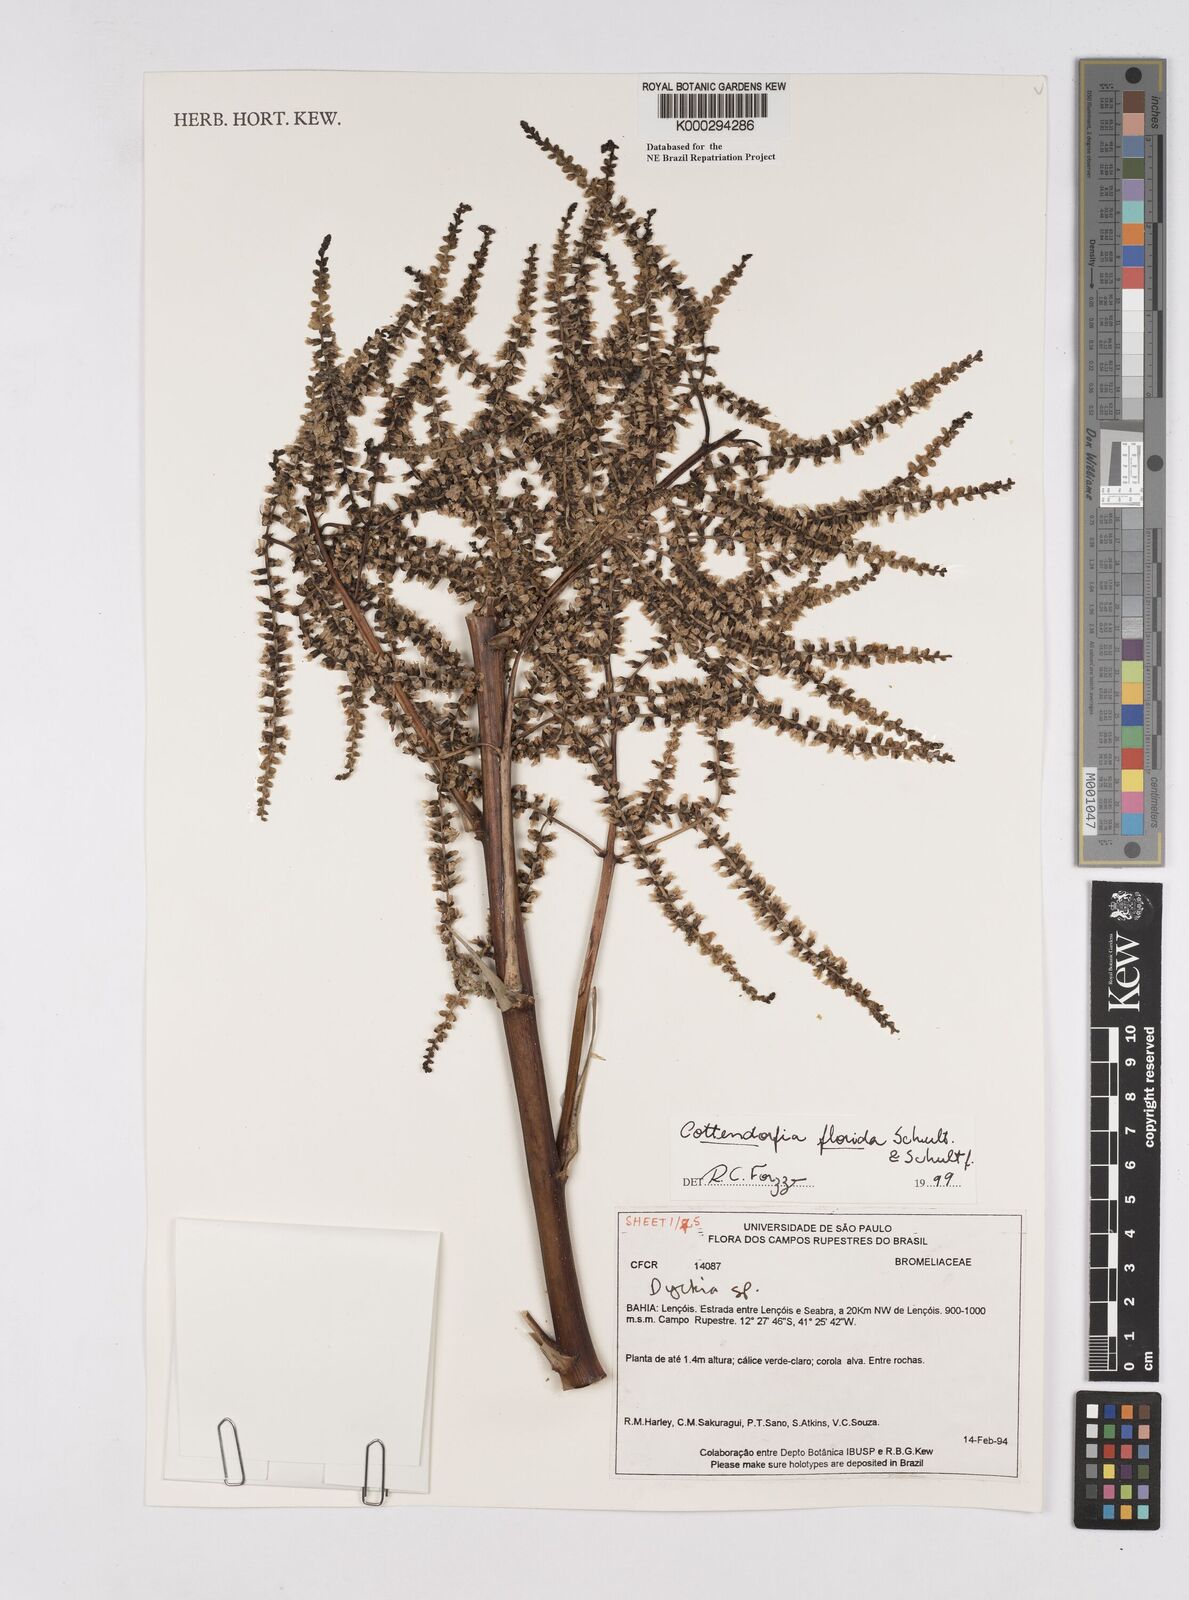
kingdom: Plantae
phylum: Tracheophyta
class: Liliopsida
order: Poales
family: Bromeliaceae
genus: Cottendorfia
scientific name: Cottendorfia florida
